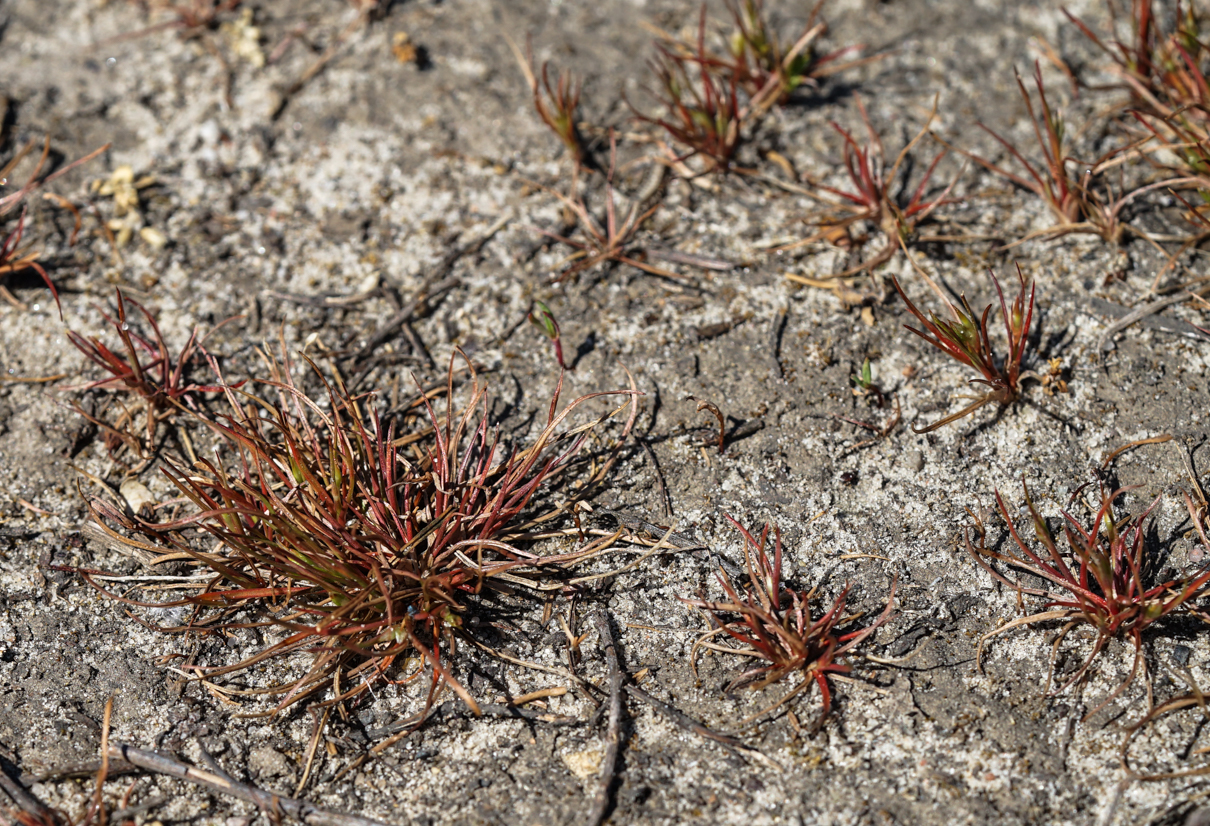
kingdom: Plantae
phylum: Tracheophyta
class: Liliopsida
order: Poales
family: Juncaceae
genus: Juncus
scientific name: Juncus squarrosus
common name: Heath rush
